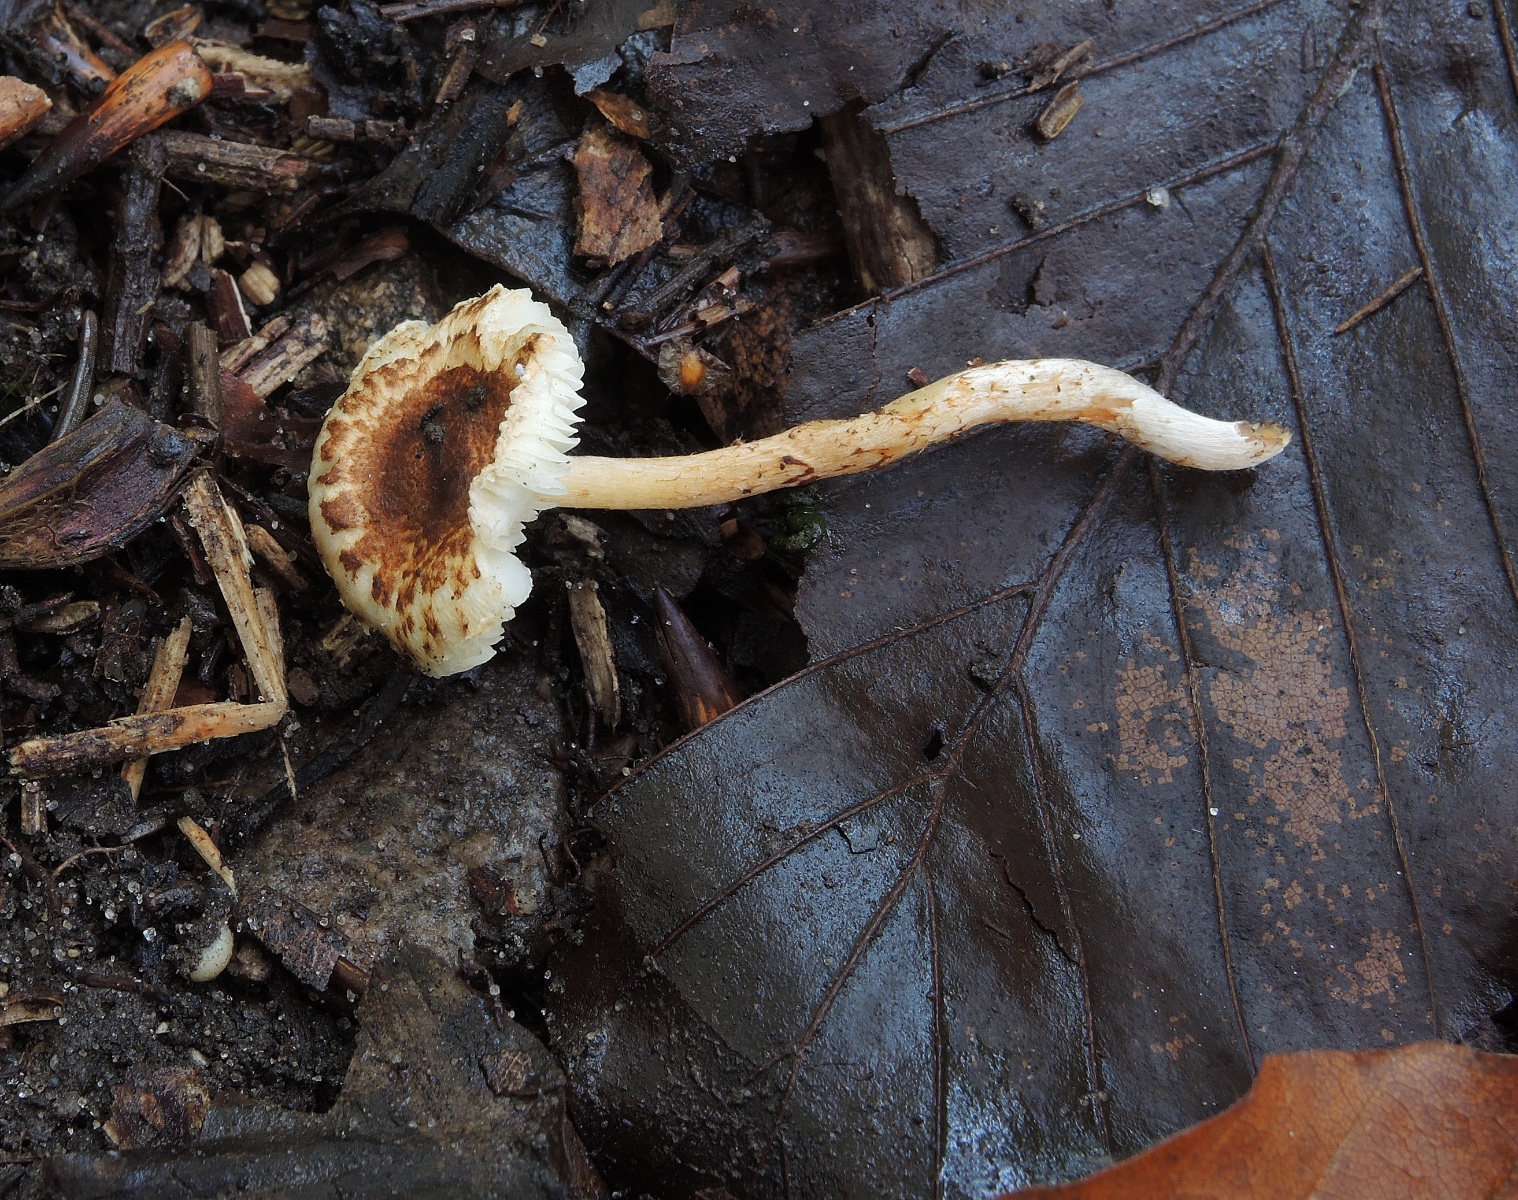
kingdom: Fungi
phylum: Basidiomycota
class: Agaricomycetes
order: Agaricales
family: Agaricaceae
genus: Lepiota
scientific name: Lepiota castanea
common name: kastaniebrun parasolhat
